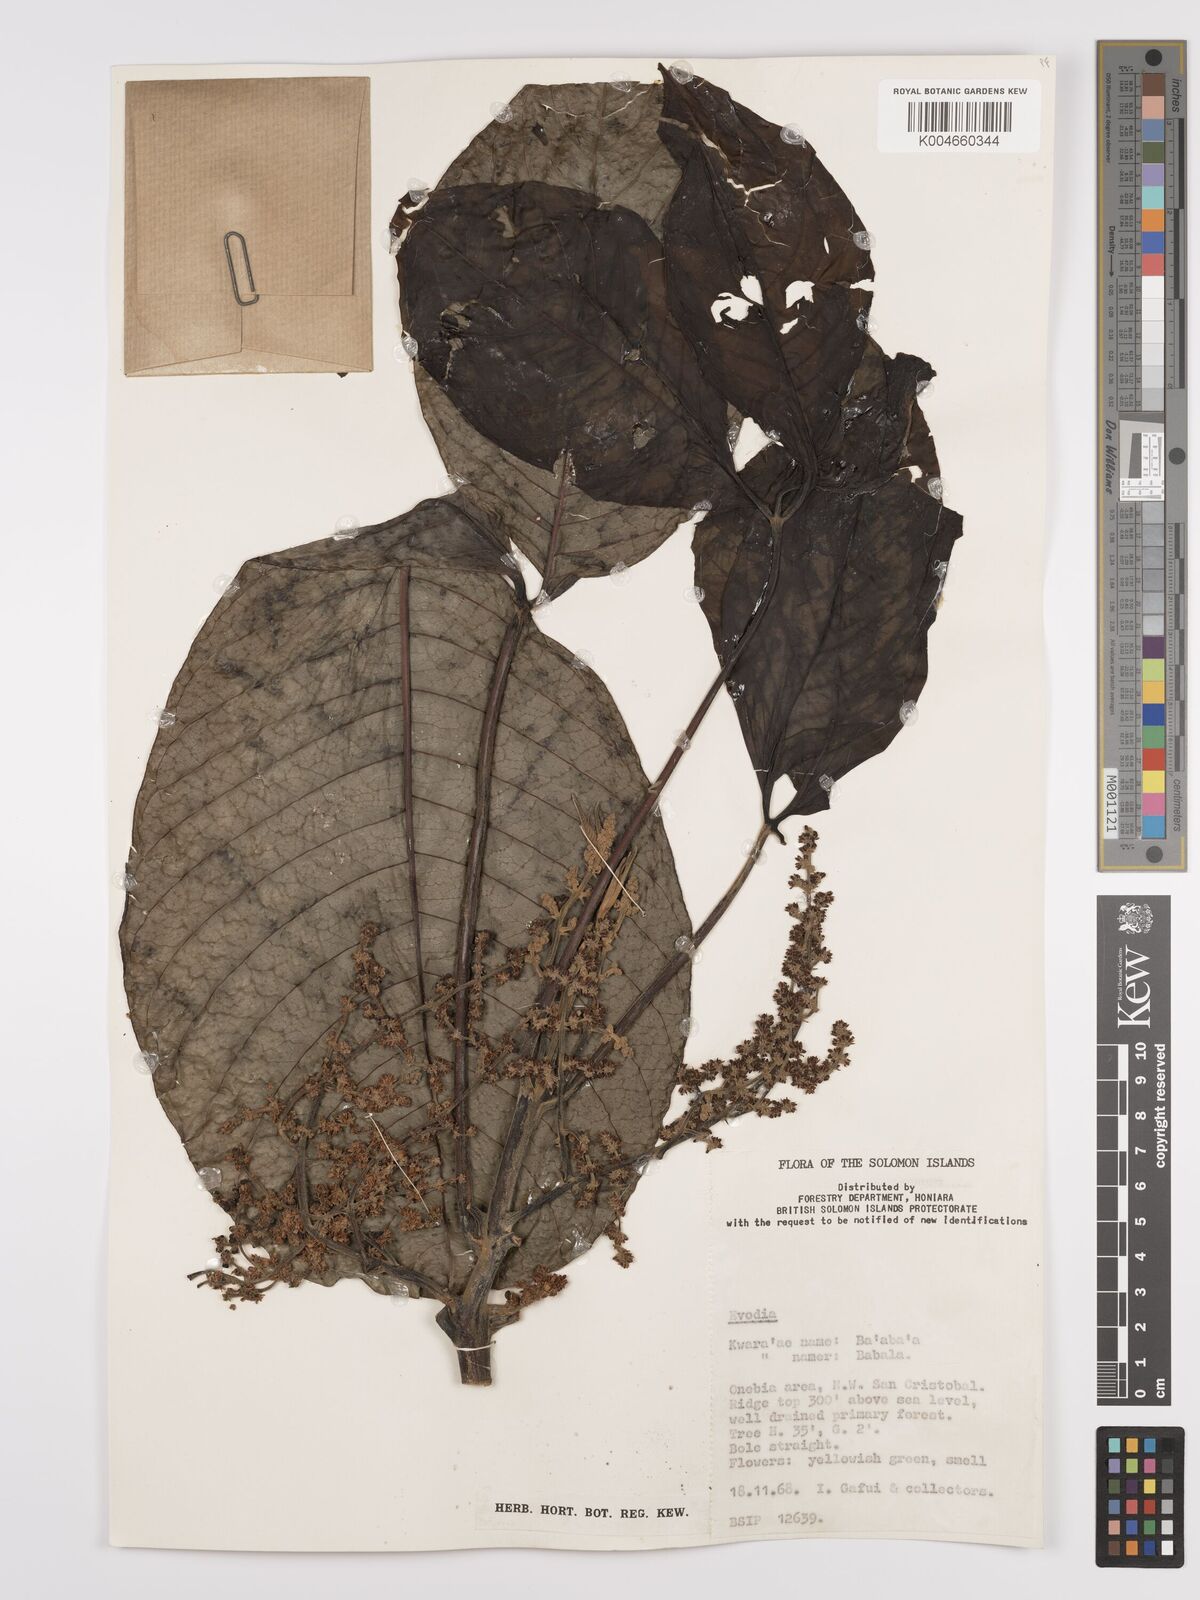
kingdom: Plantae
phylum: Tracheophyta
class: Magnoliopsida
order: Sapindales
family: Rutaceae
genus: Euodia
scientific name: Euodia
